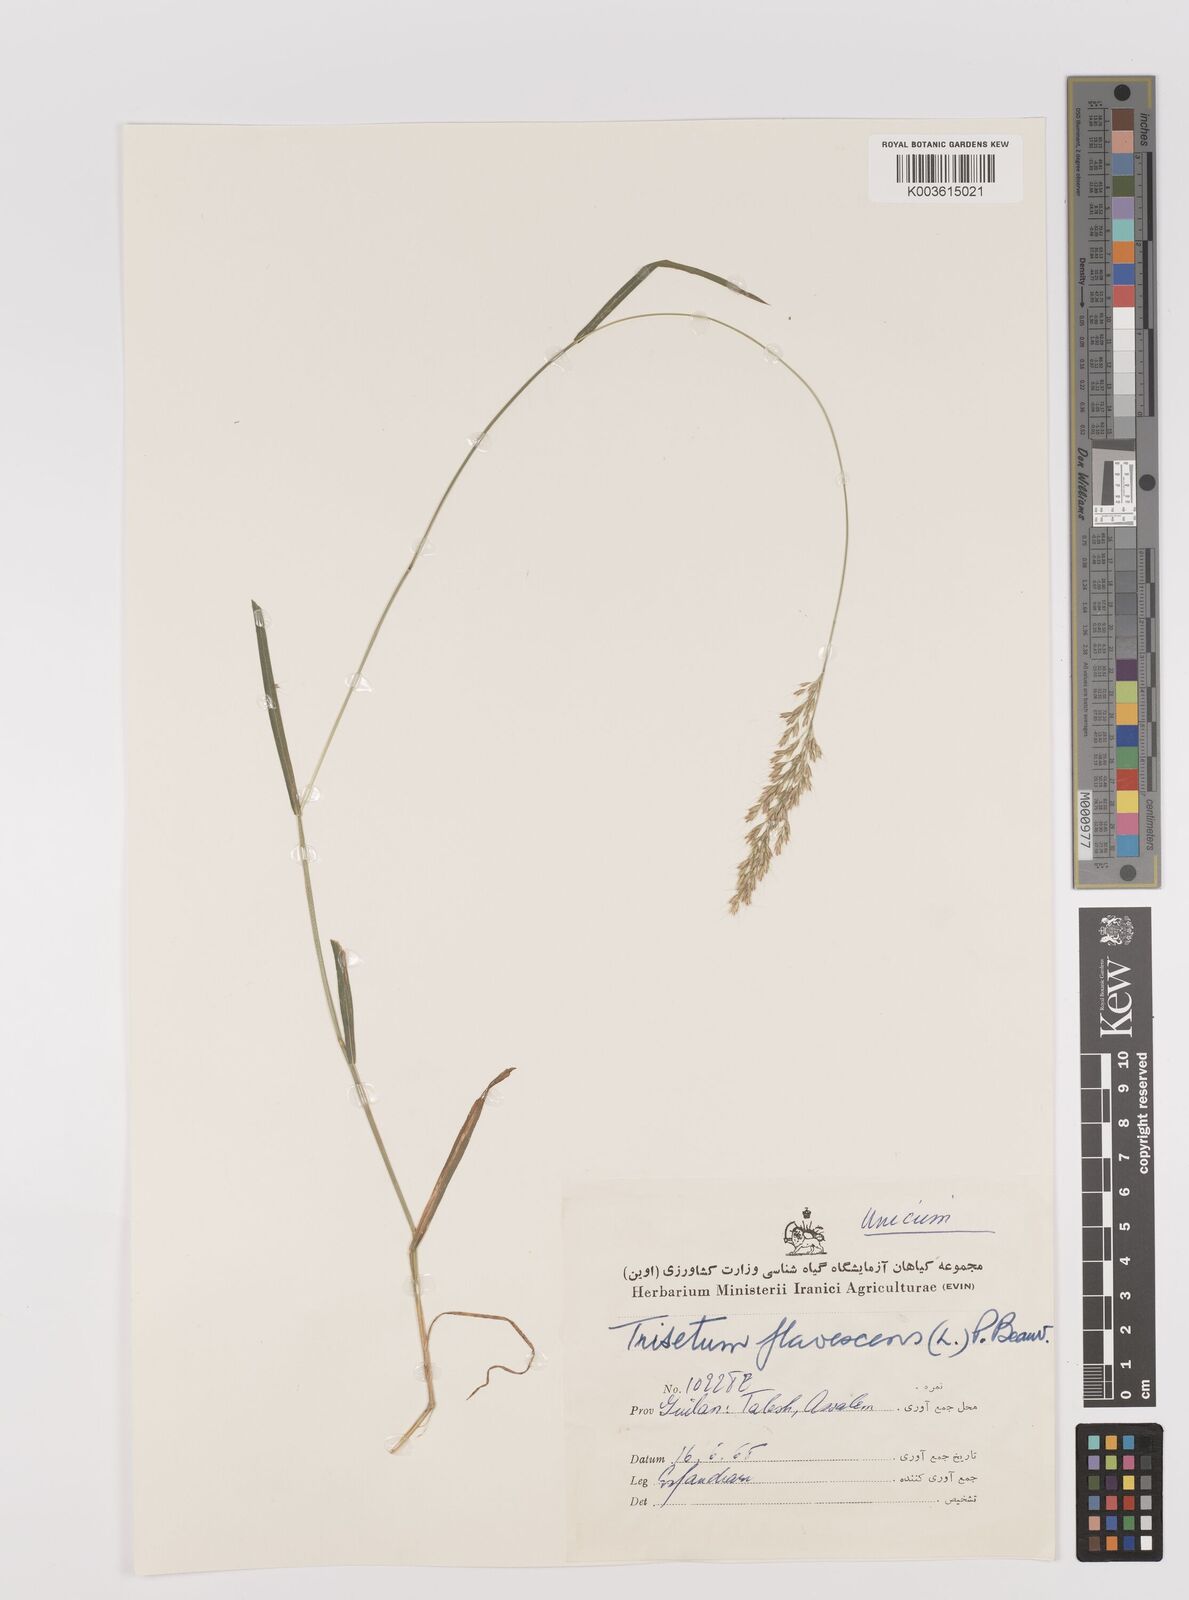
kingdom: Plantae
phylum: Tracheophyta
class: Liliopsida
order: Poales
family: Poaceae
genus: Trisetum
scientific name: Trisetum flavescens
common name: Yellow oat-grass
